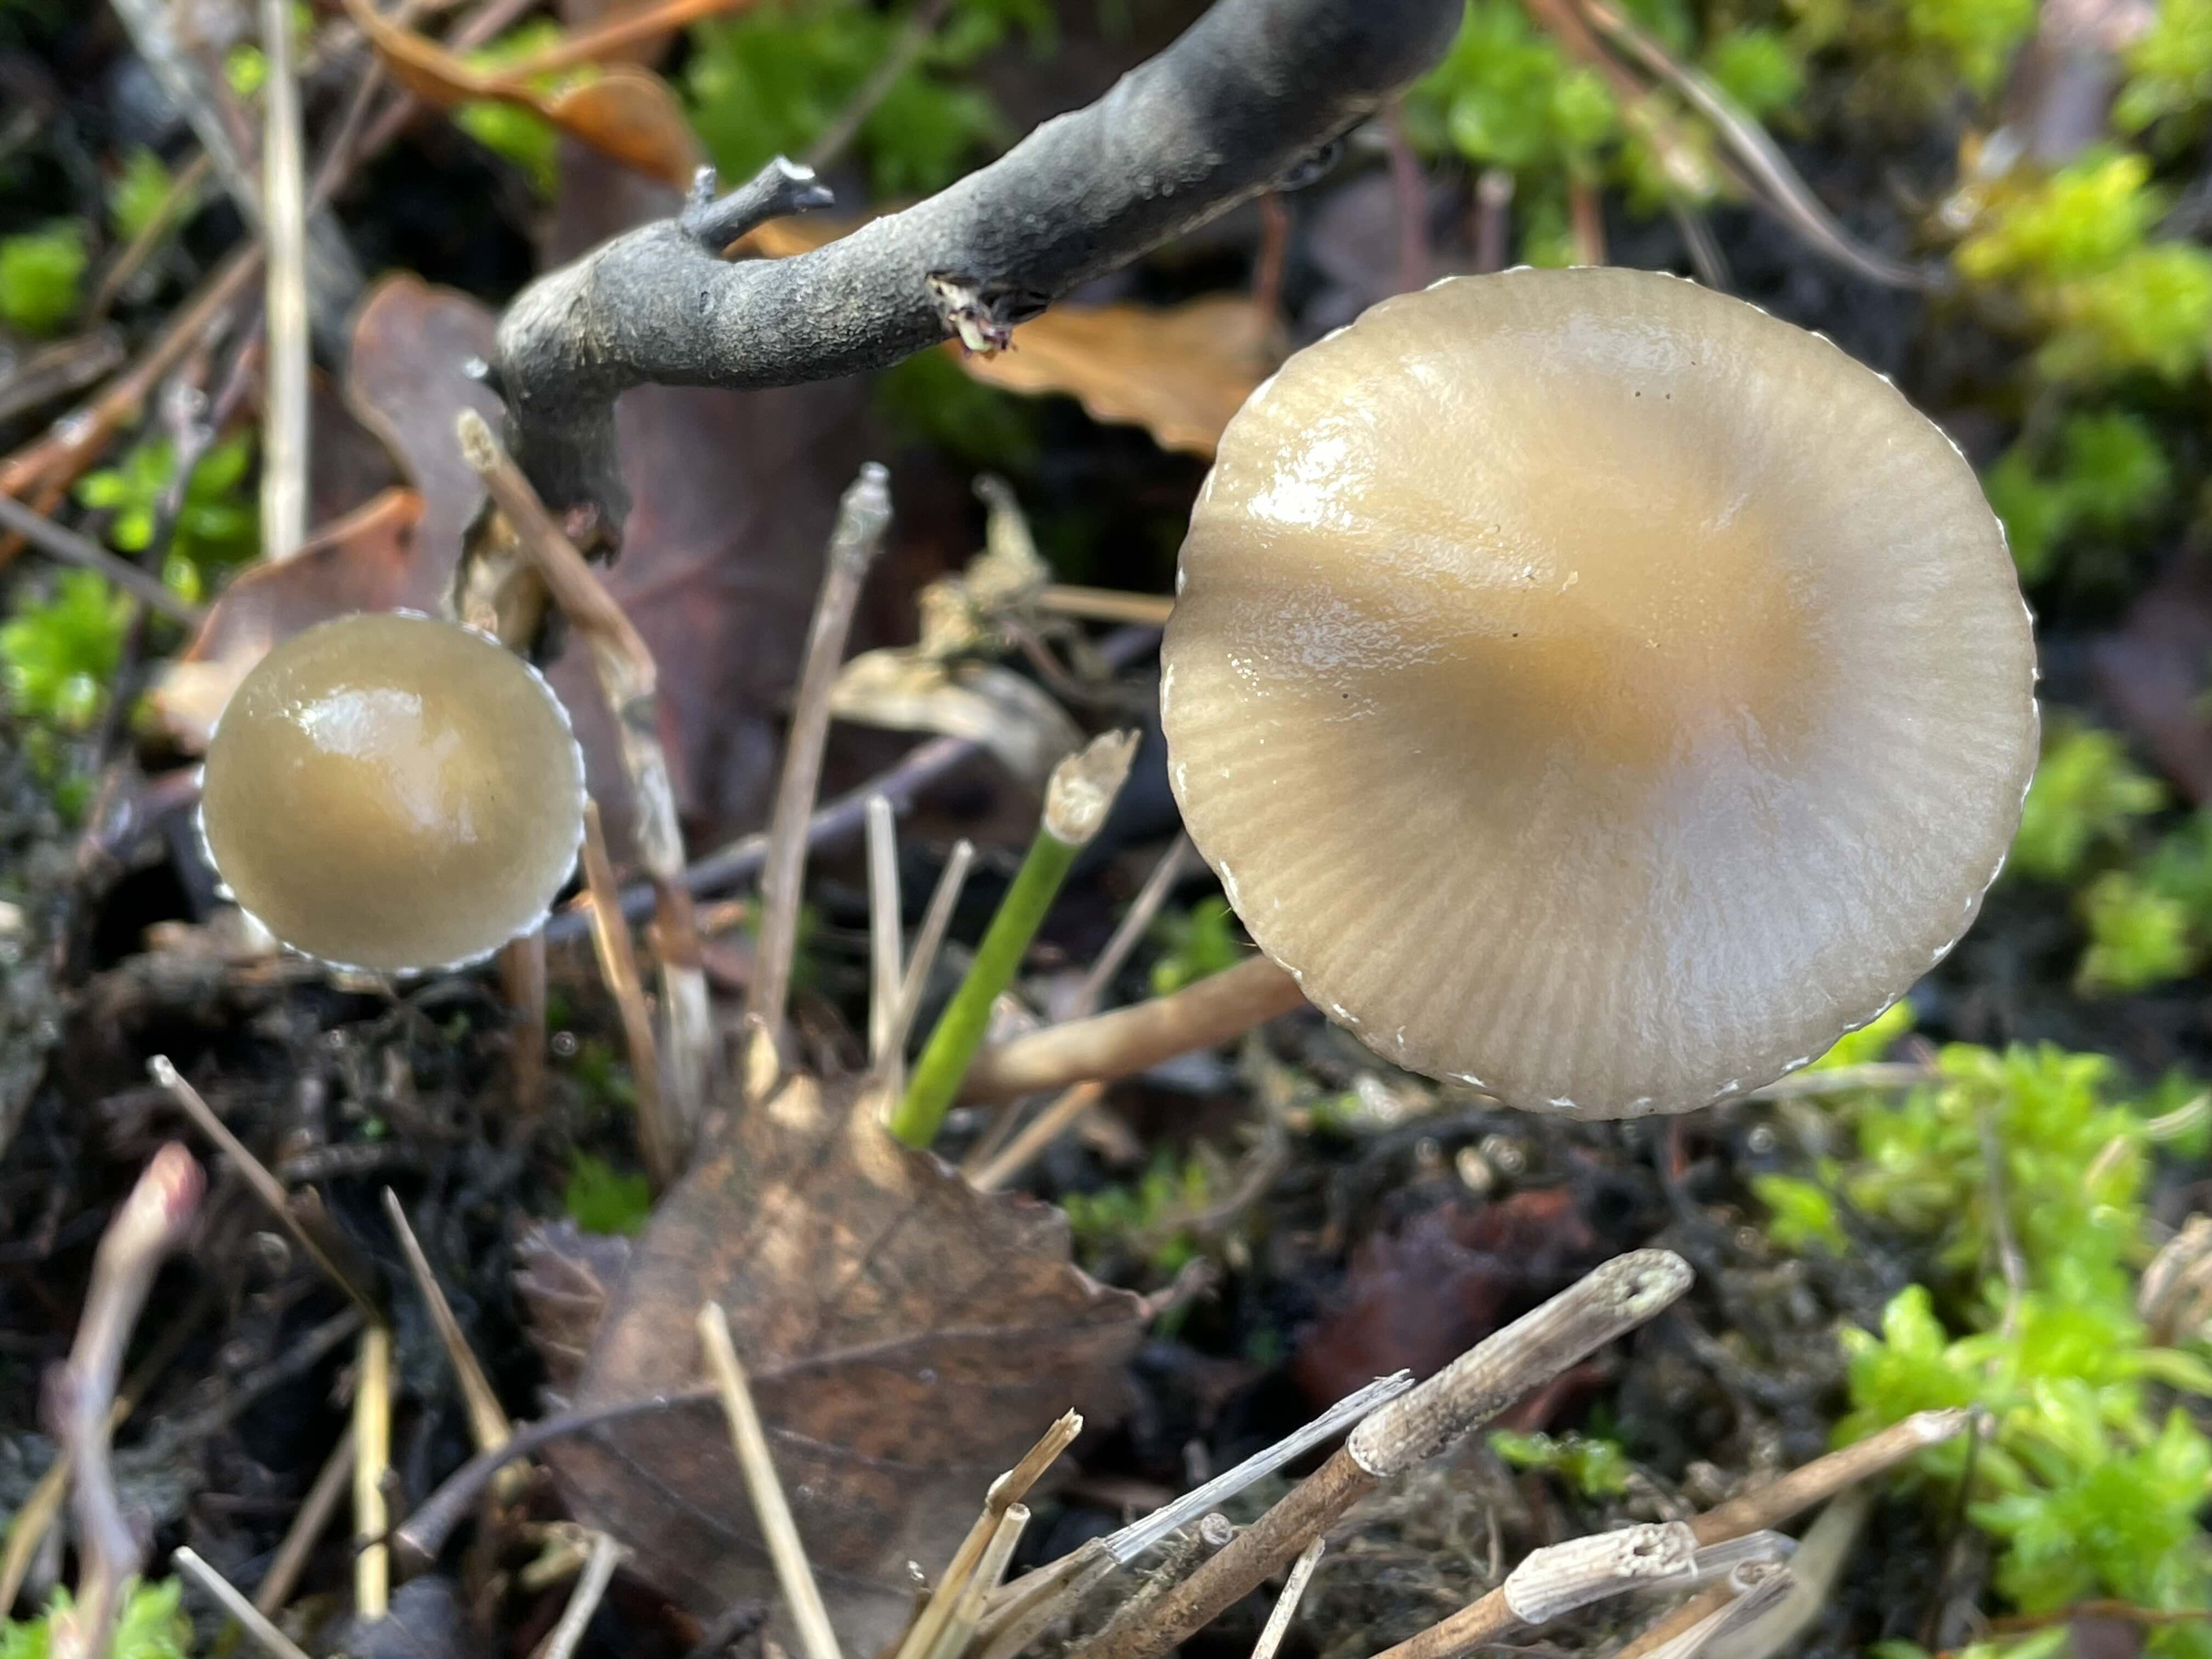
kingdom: Fungi
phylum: Basidiomycota
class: Agaricomycetes
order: Agaricales
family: Strophariaceae
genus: Hypholoma
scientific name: Hypholoma myosotis
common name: slimet svovlhat
